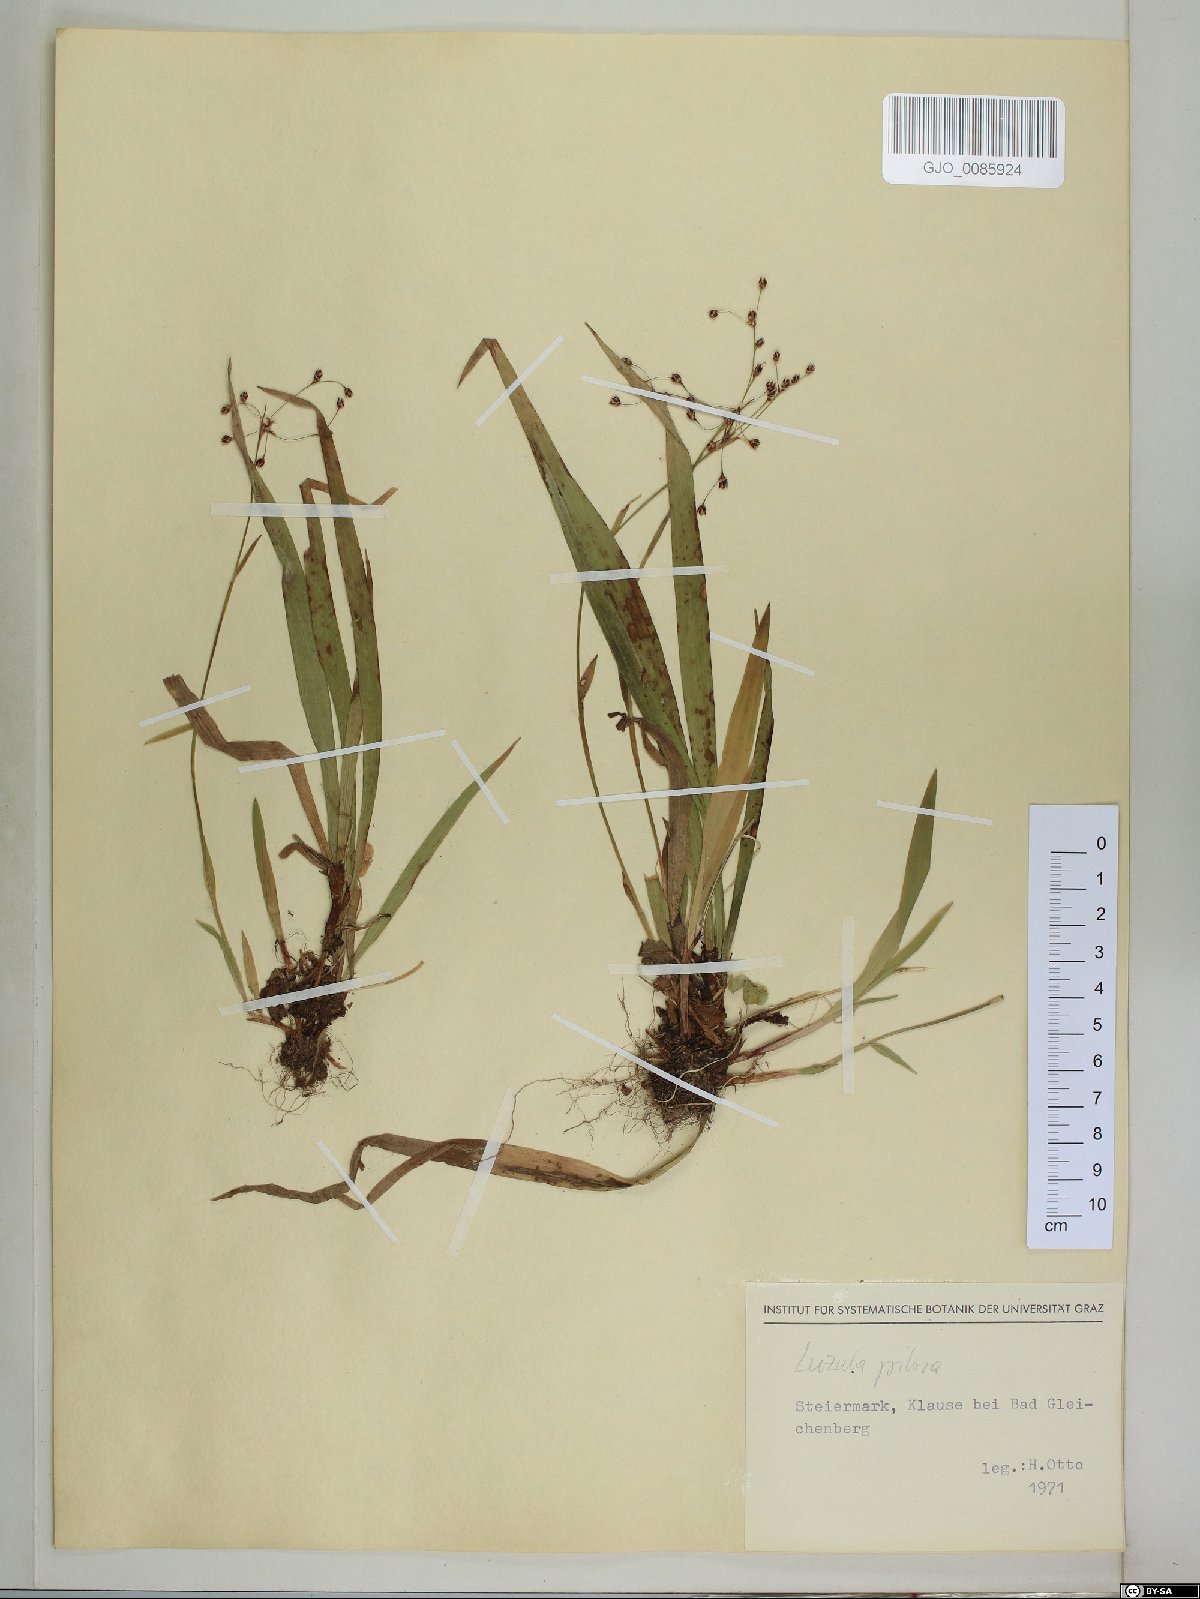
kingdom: Plantae
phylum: Tracheophyta
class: Liliopsida
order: Poales
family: Juncaceae
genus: Luzula
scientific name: Luzula pilosa
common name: Hairy wood-rush
